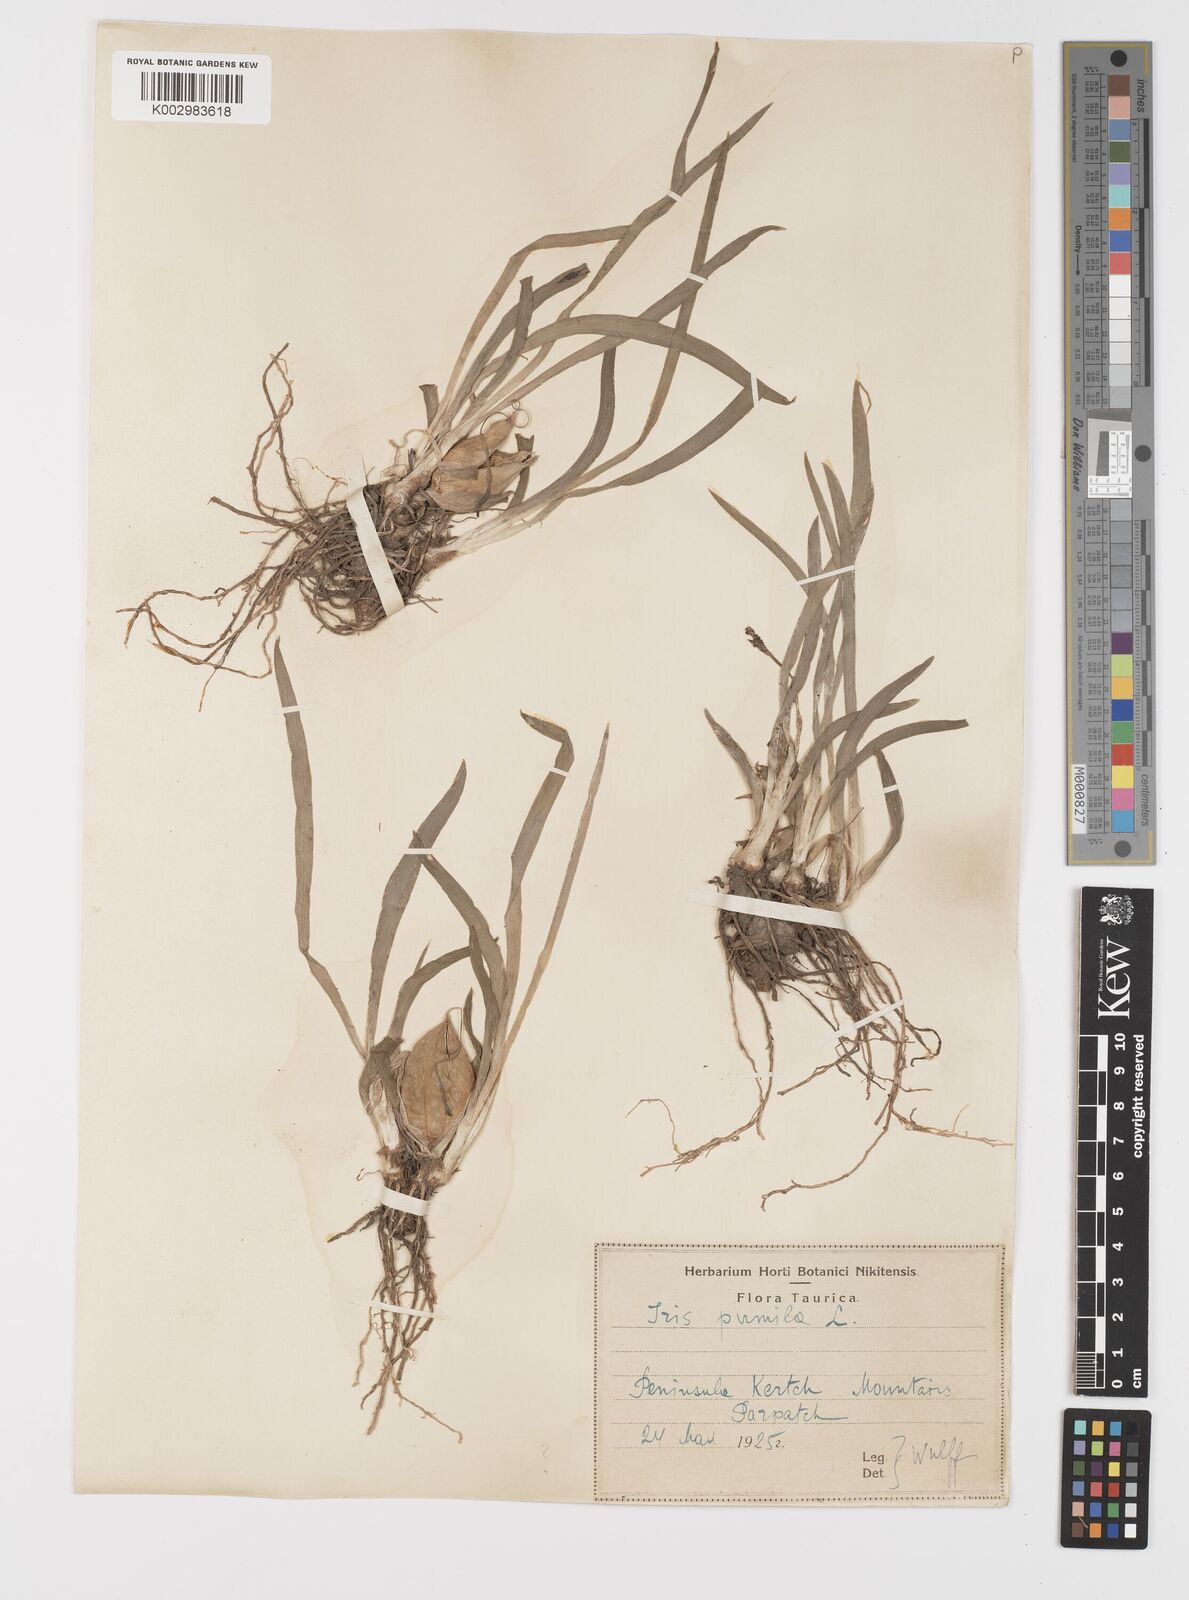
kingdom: Plantae
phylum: Tracheophyta
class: Liliopsida
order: Asparagales
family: Iridaceae
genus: Iris
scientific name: Iris pumila
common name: Dwarf iris
